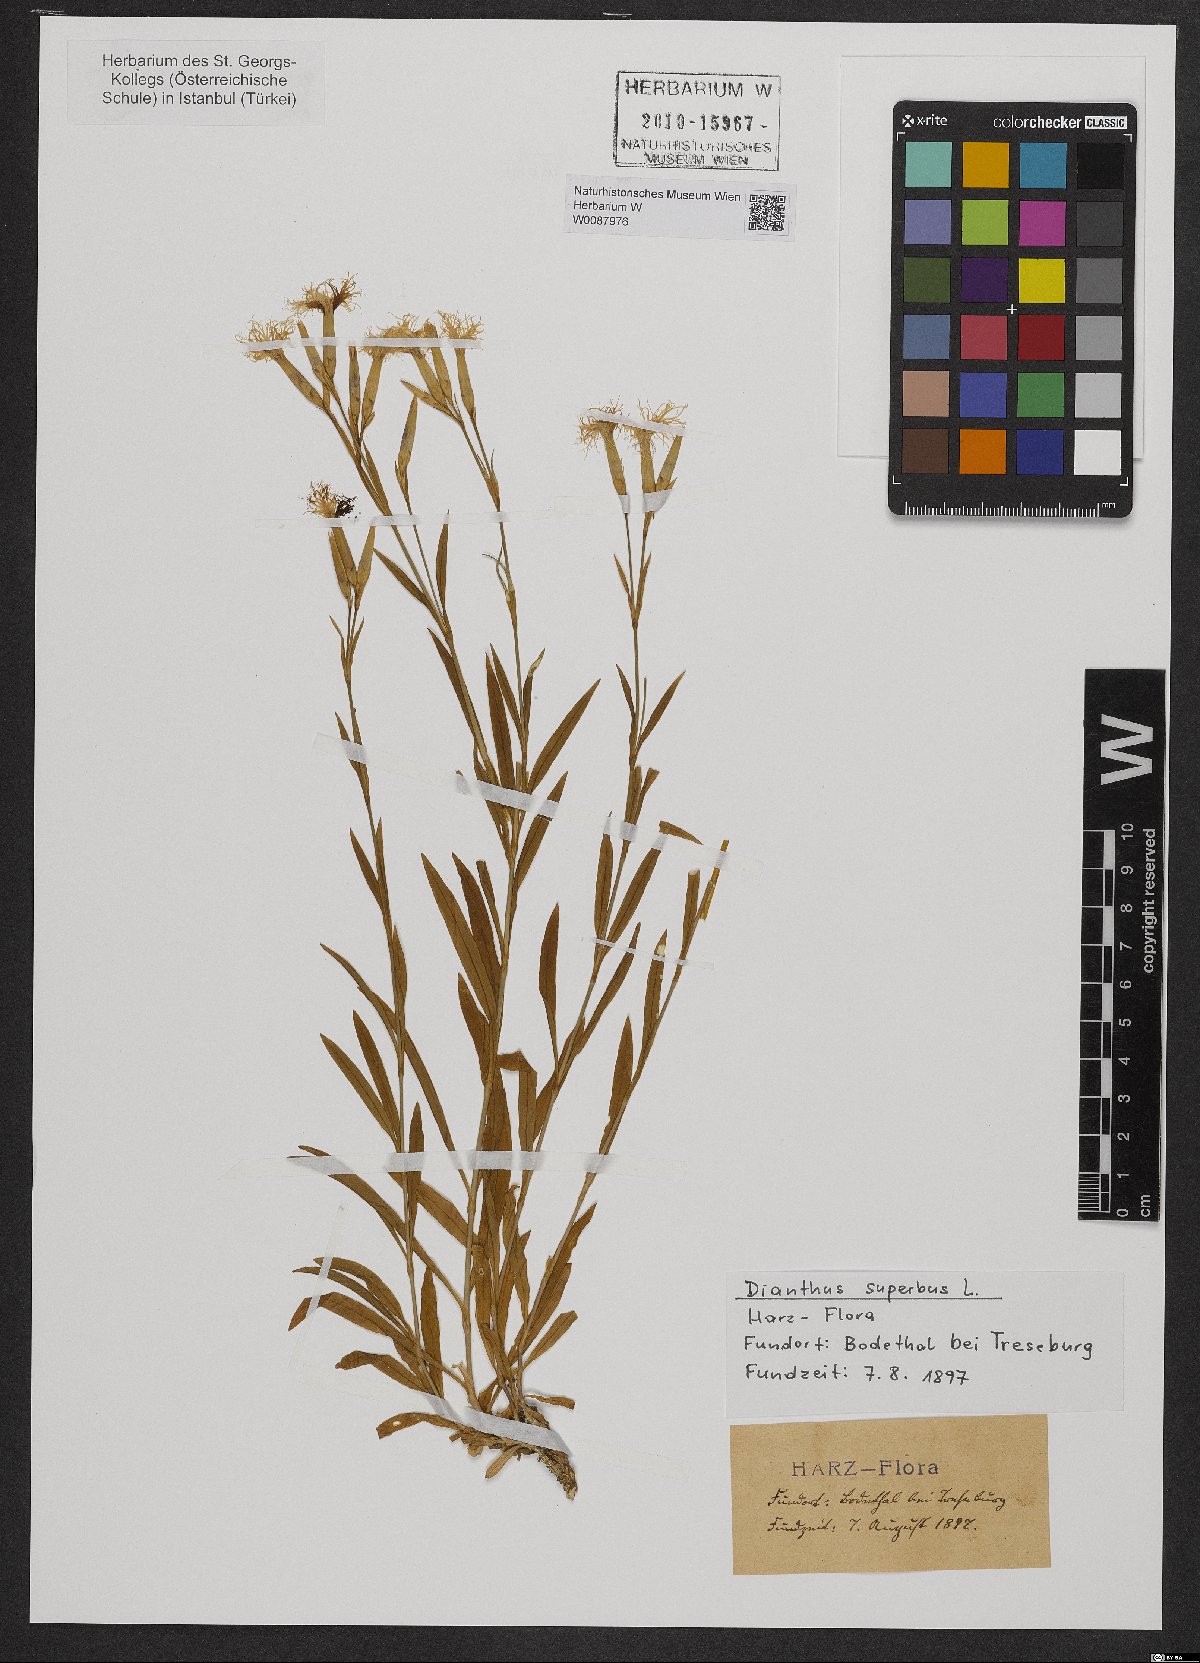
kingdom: Plantae
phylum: Tracheophyta
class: Magnoliopsida
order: Caryophyllales
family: Caryophyllaceae
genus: Dianthus
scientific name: Dianthus superbus
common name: Fringed pink
